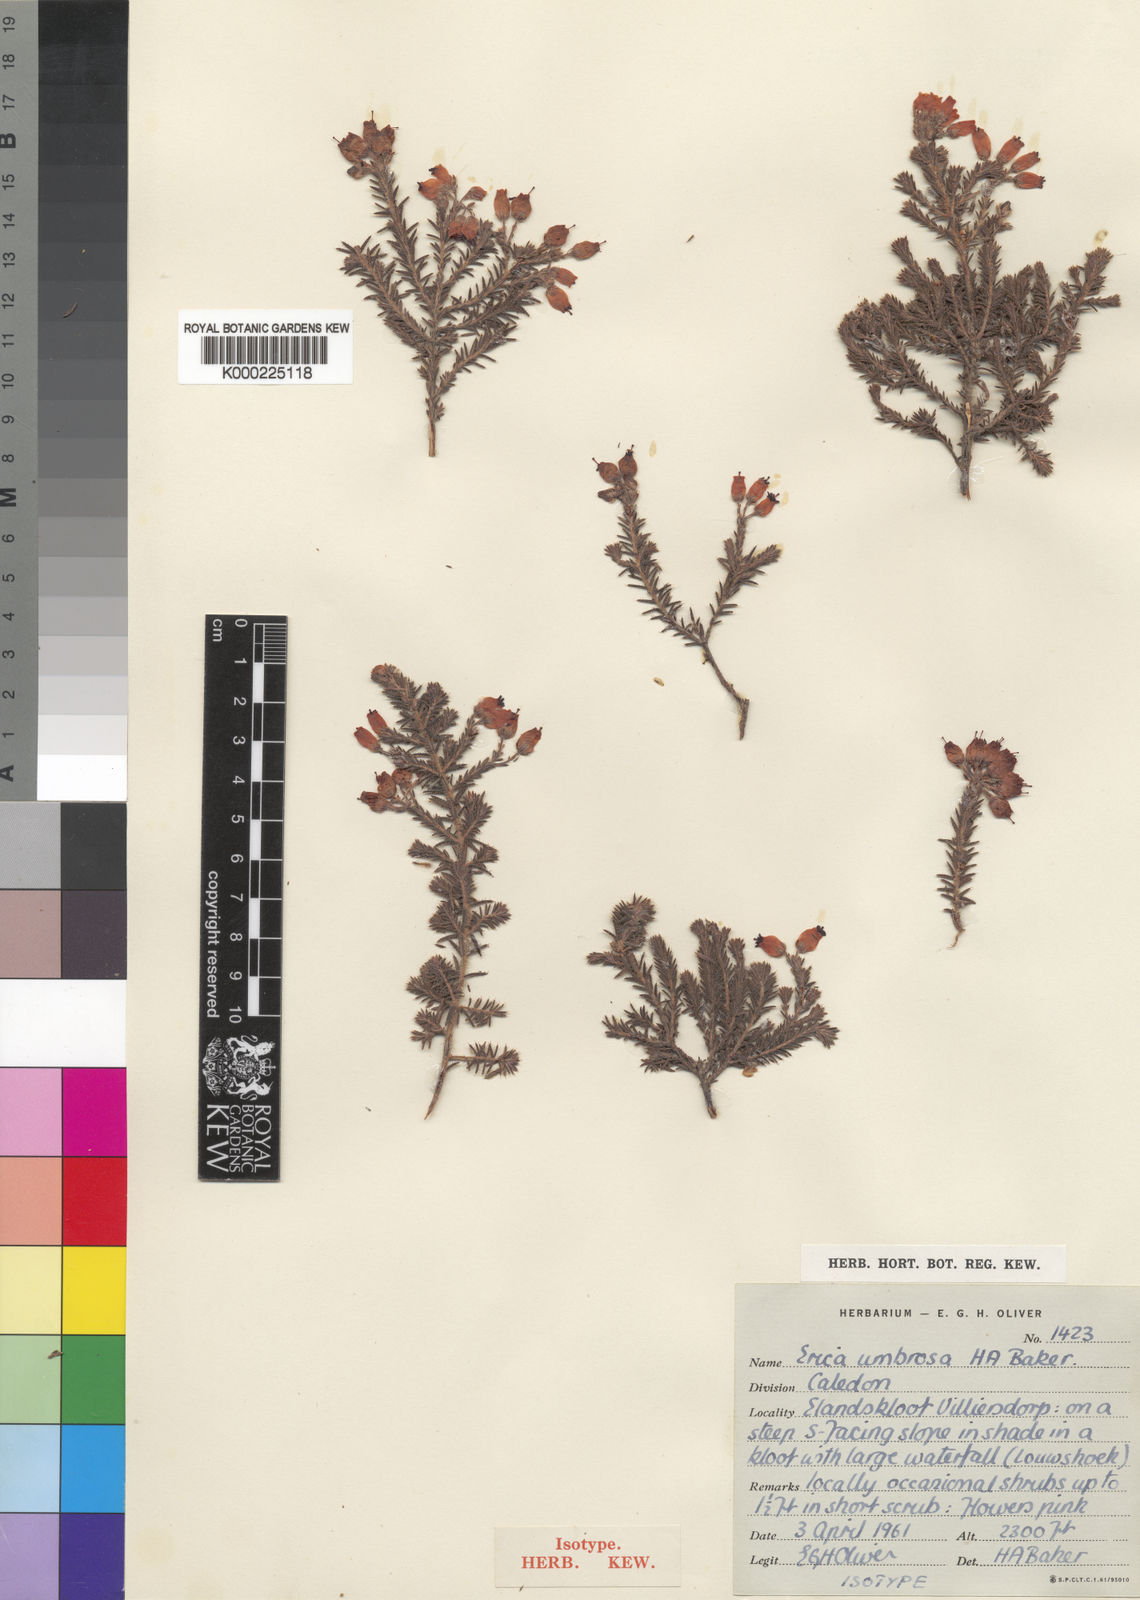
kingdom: Plantae
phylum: Tracheophyta
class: Magnoliopsida
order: Ericales
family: Ericaceae
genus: Erica
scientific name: Erica armata
